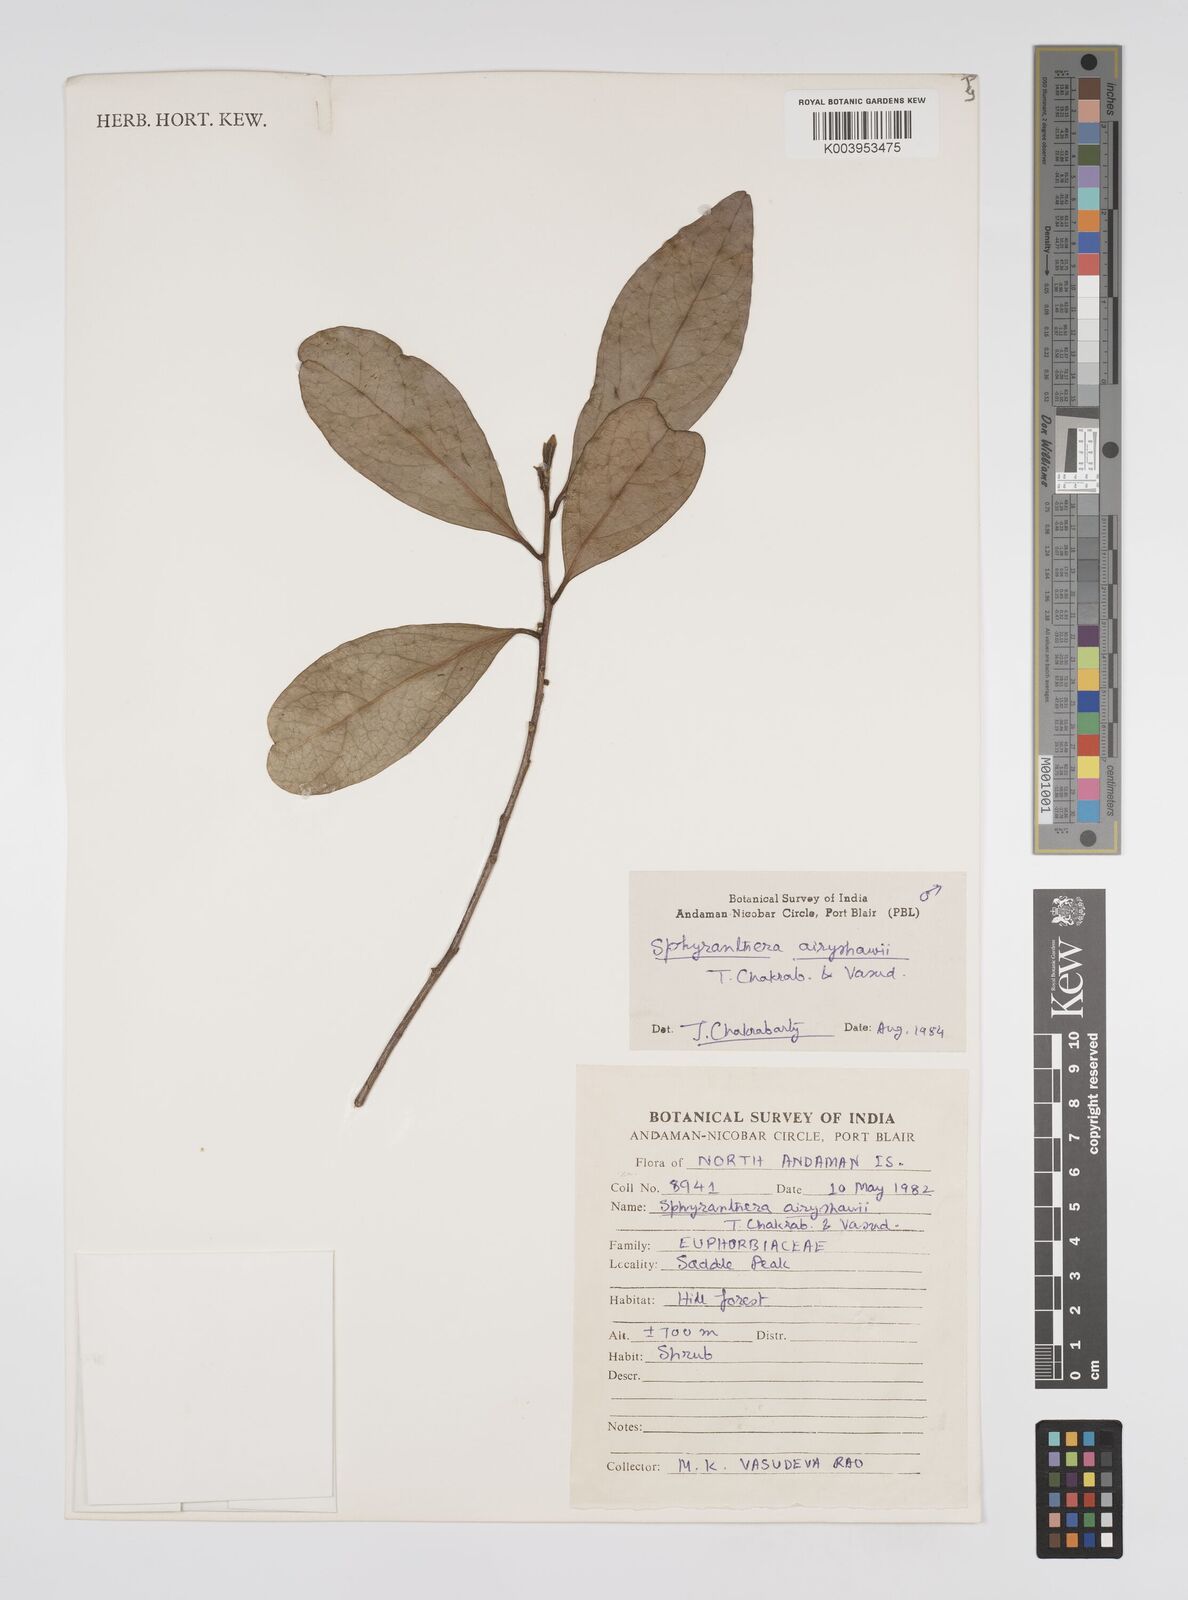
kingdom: Plantae
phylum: Tracheophyta
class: Magnoliopsida
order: Malpighiales
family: Euphorbiaceae
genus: Sphyranthera
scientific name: Sphyranthera airyshawii
